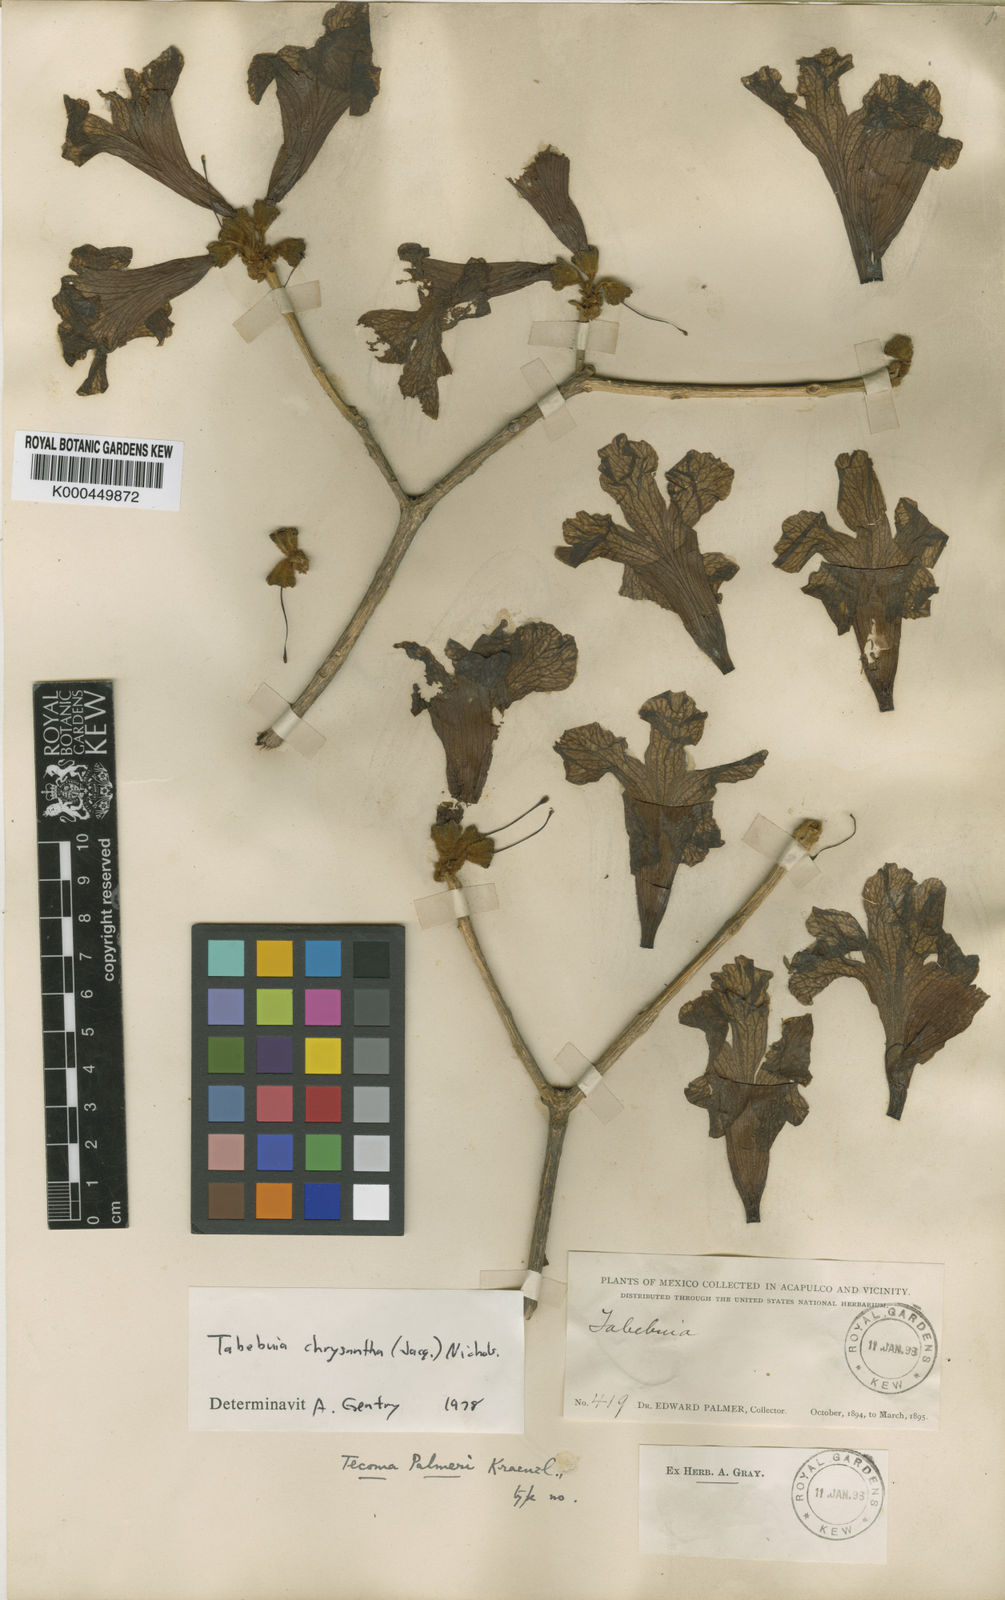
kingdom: Plantae
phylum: Tracheophyta
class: Magnoliopsida
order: Lamiales
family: Bignoniaceae
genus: Handroanthus
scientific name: Handroanthus chrysanthus
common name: Trumpet trees
